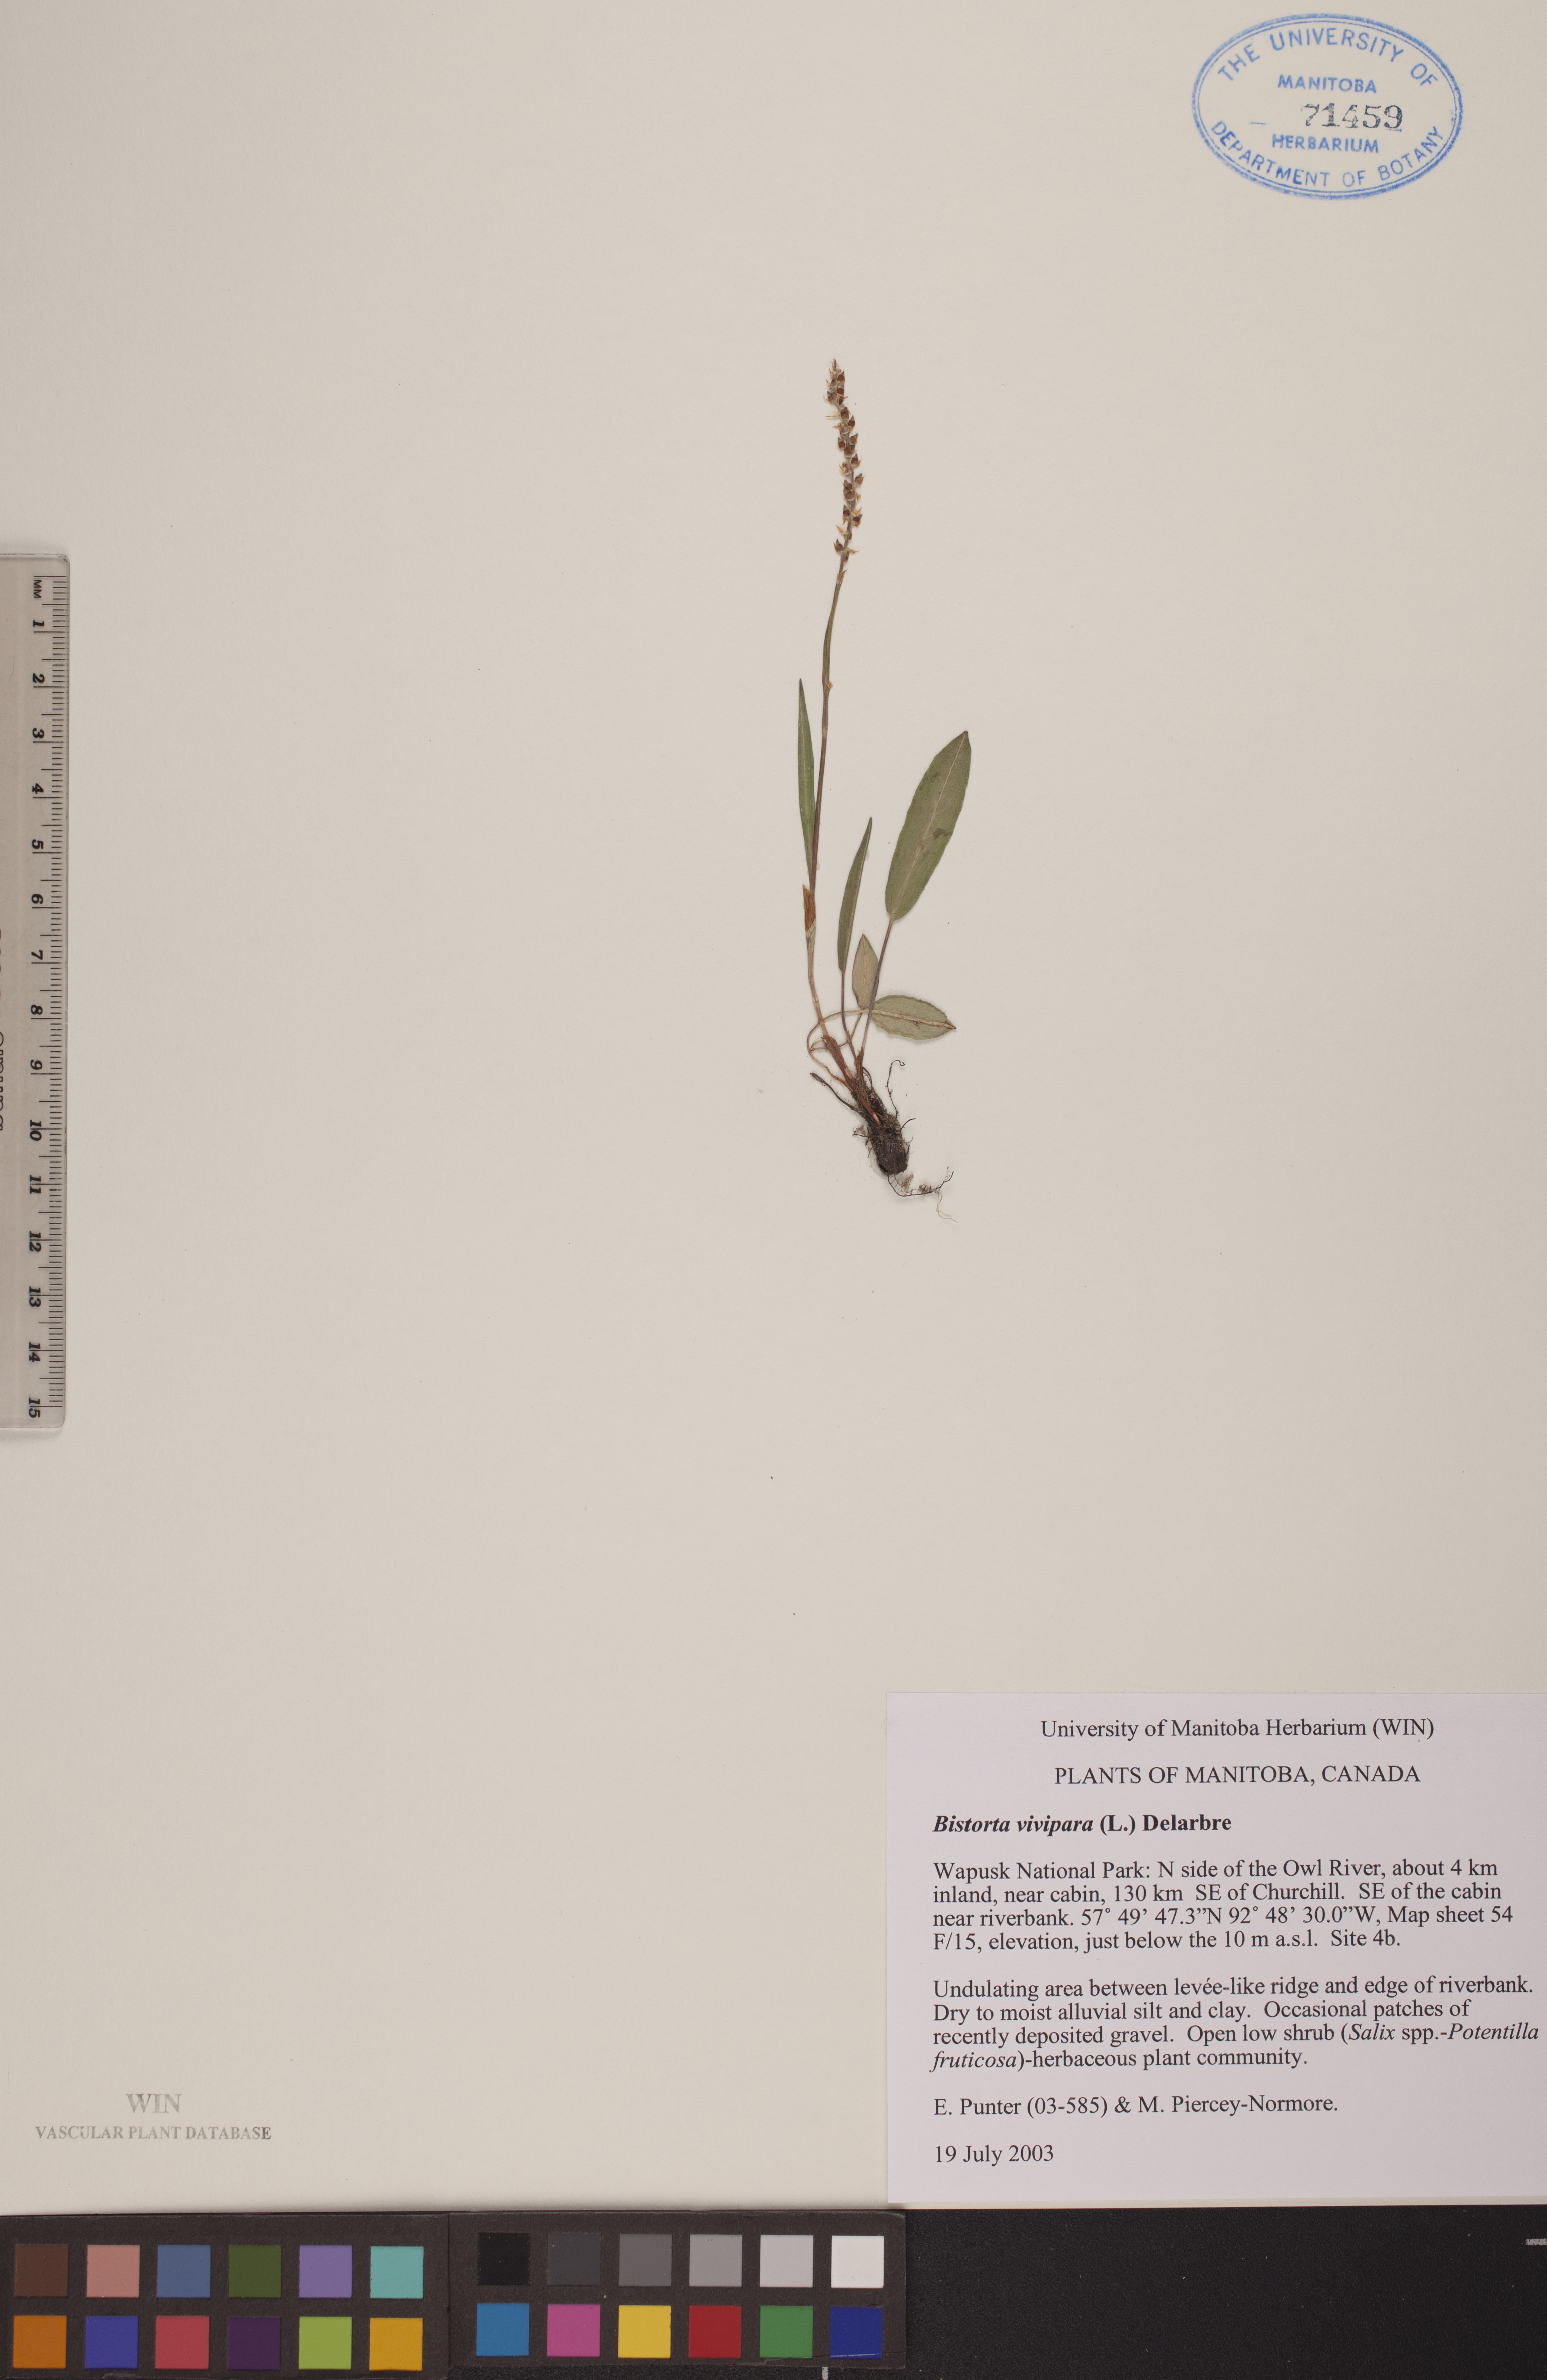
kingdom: Plantae
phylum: Tracheophyta
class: Magnoliopsida
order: Caryophyllales
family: Polygonaceae
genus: Bistorta
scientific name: Bistorta vivipara
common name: Alpine bistort
